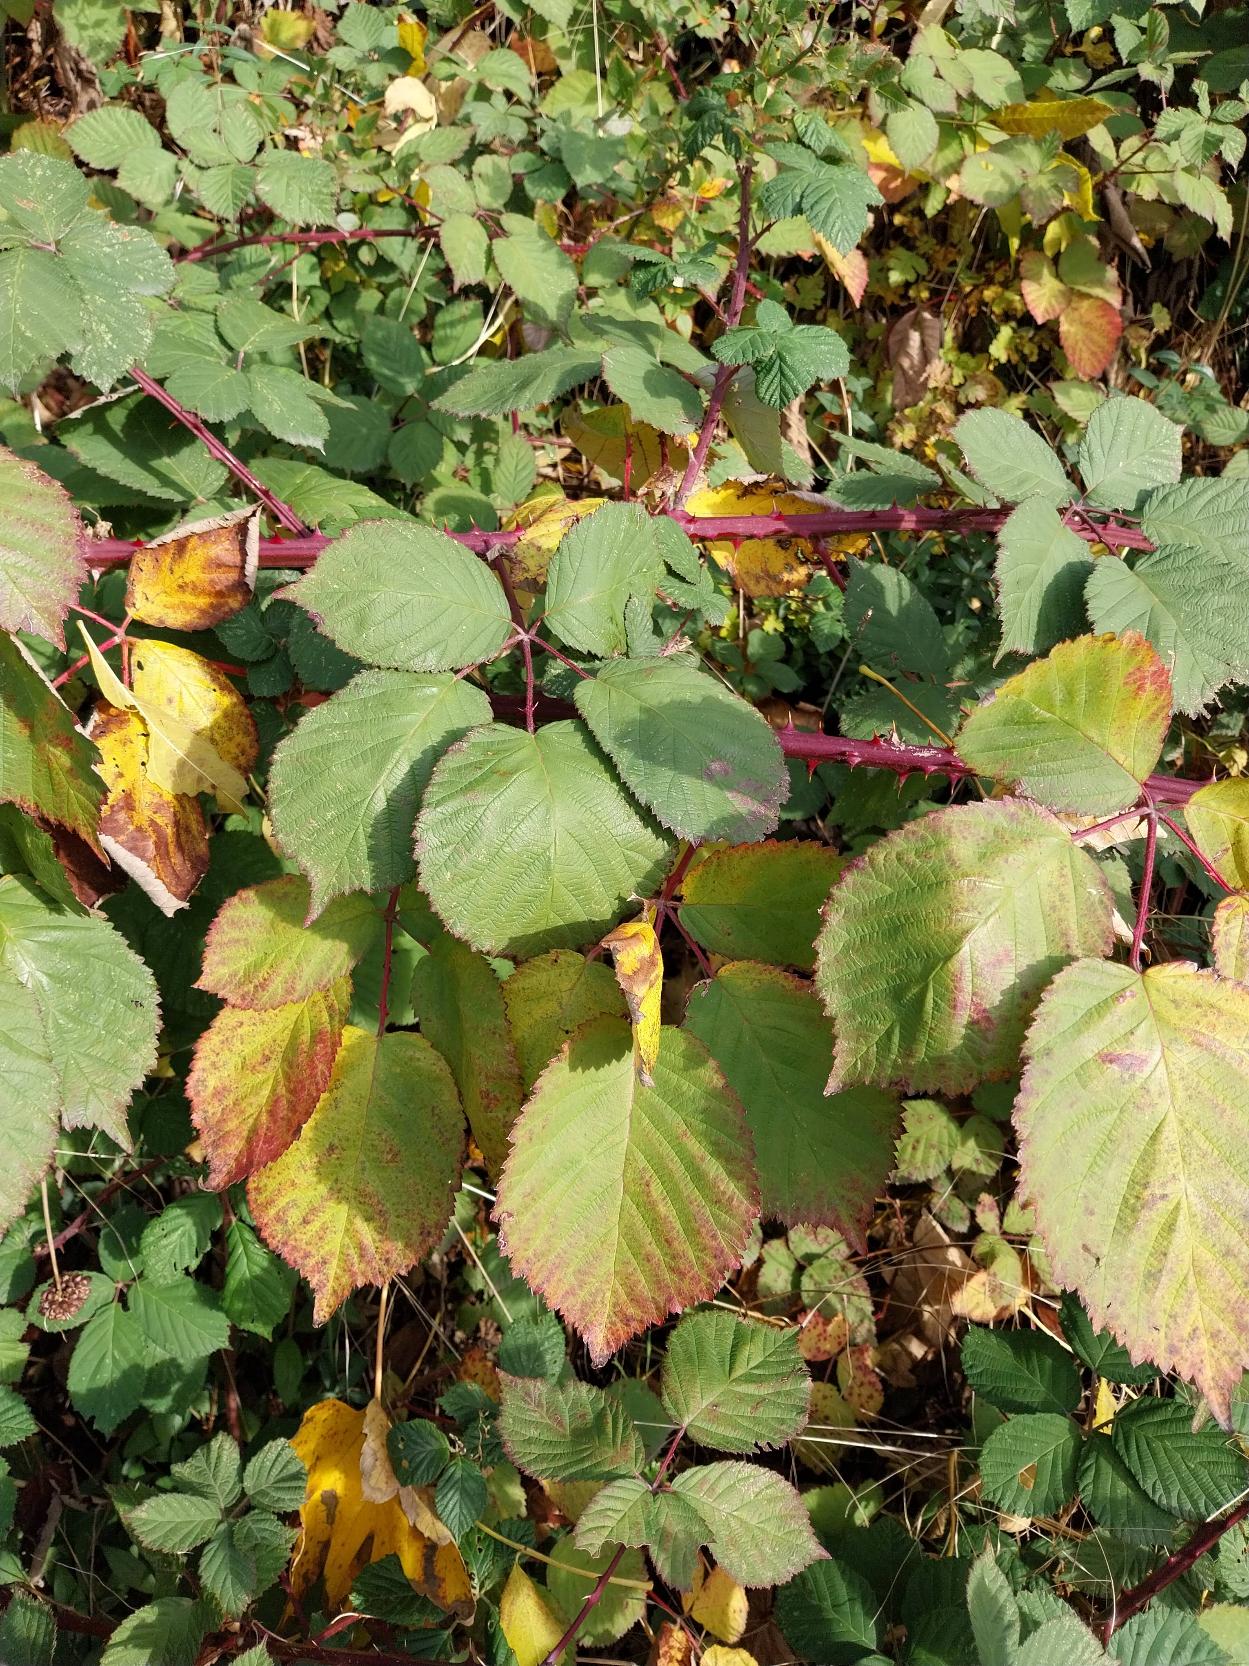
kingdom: Plantae
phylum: Tracheophyta
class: Magnoliopsida
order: Rosales
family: Rosaceae
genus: Rubus
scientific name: Rubus armeniacus
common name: Armensk brombær
